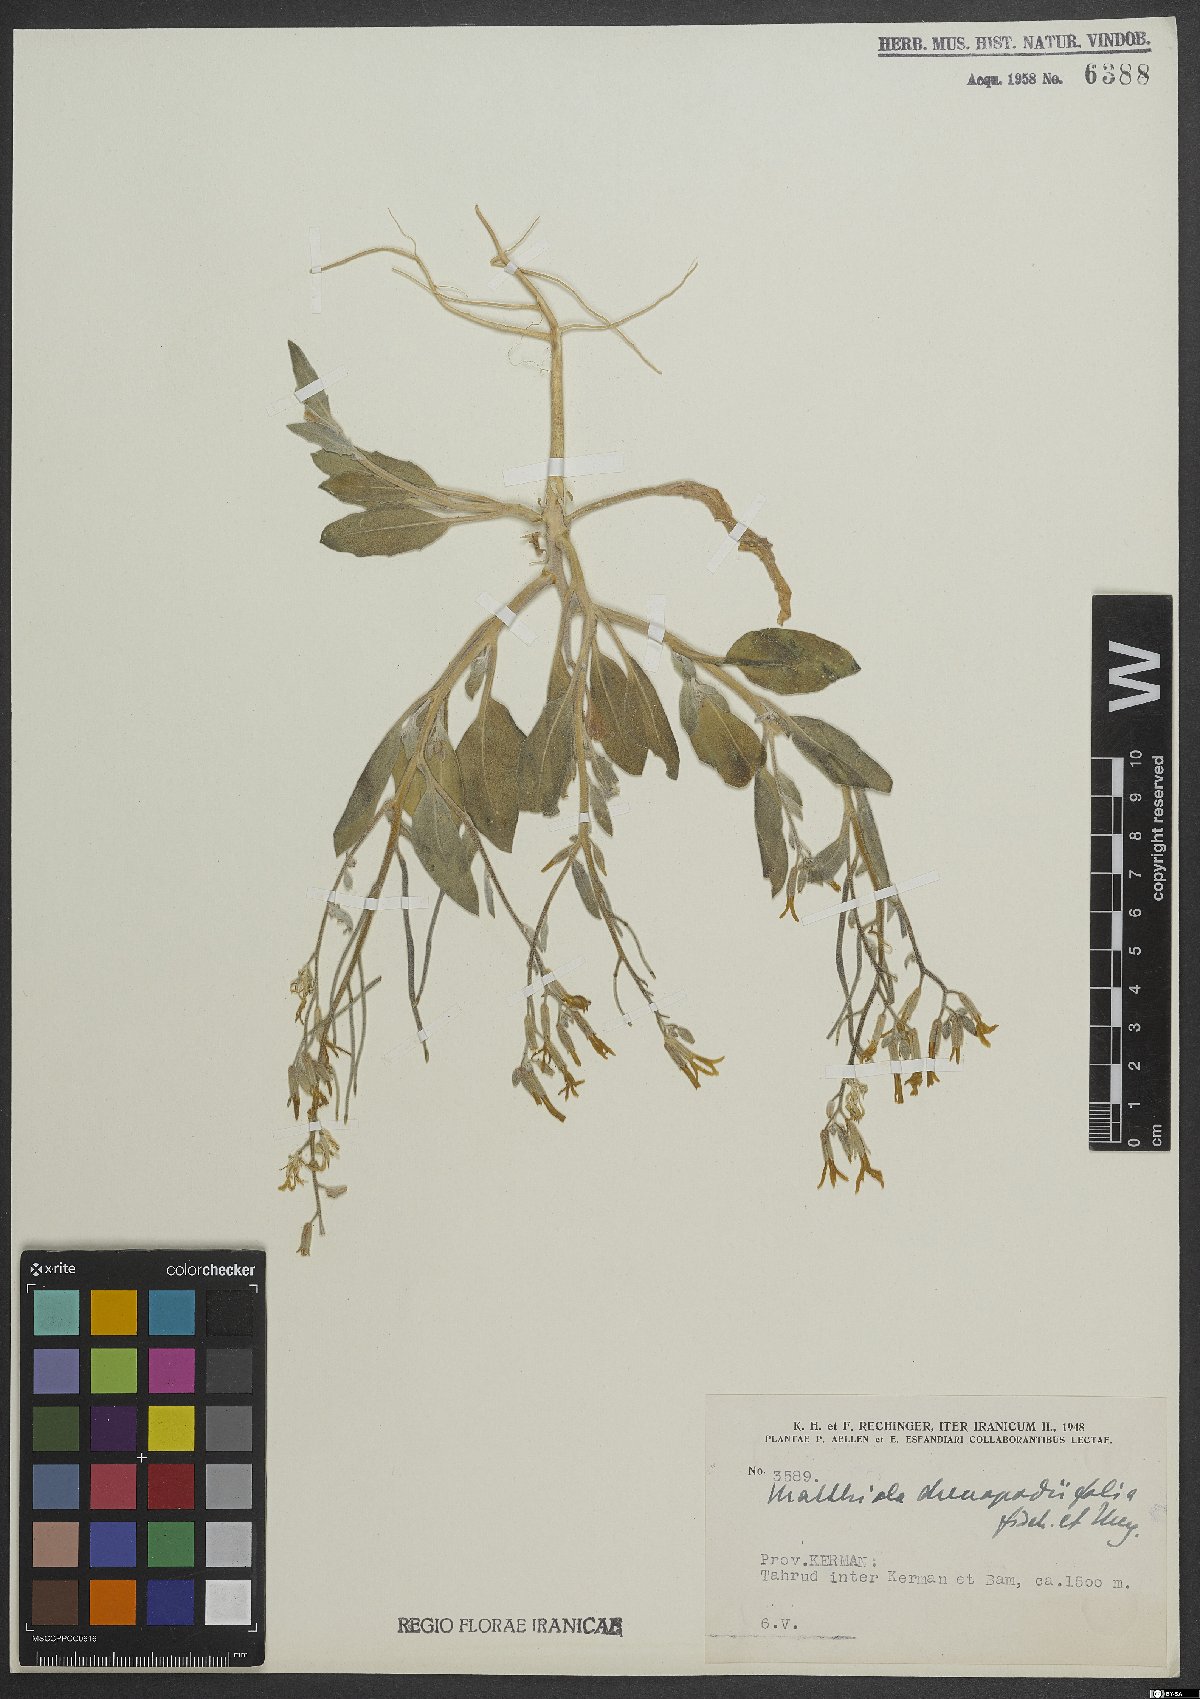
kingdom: Plantae
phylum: Tracheophyta
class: Magnoliopsida
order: Brassicales
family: Brassicaceae
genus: Matthiola
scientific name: Matthiola chenopodiifolia
